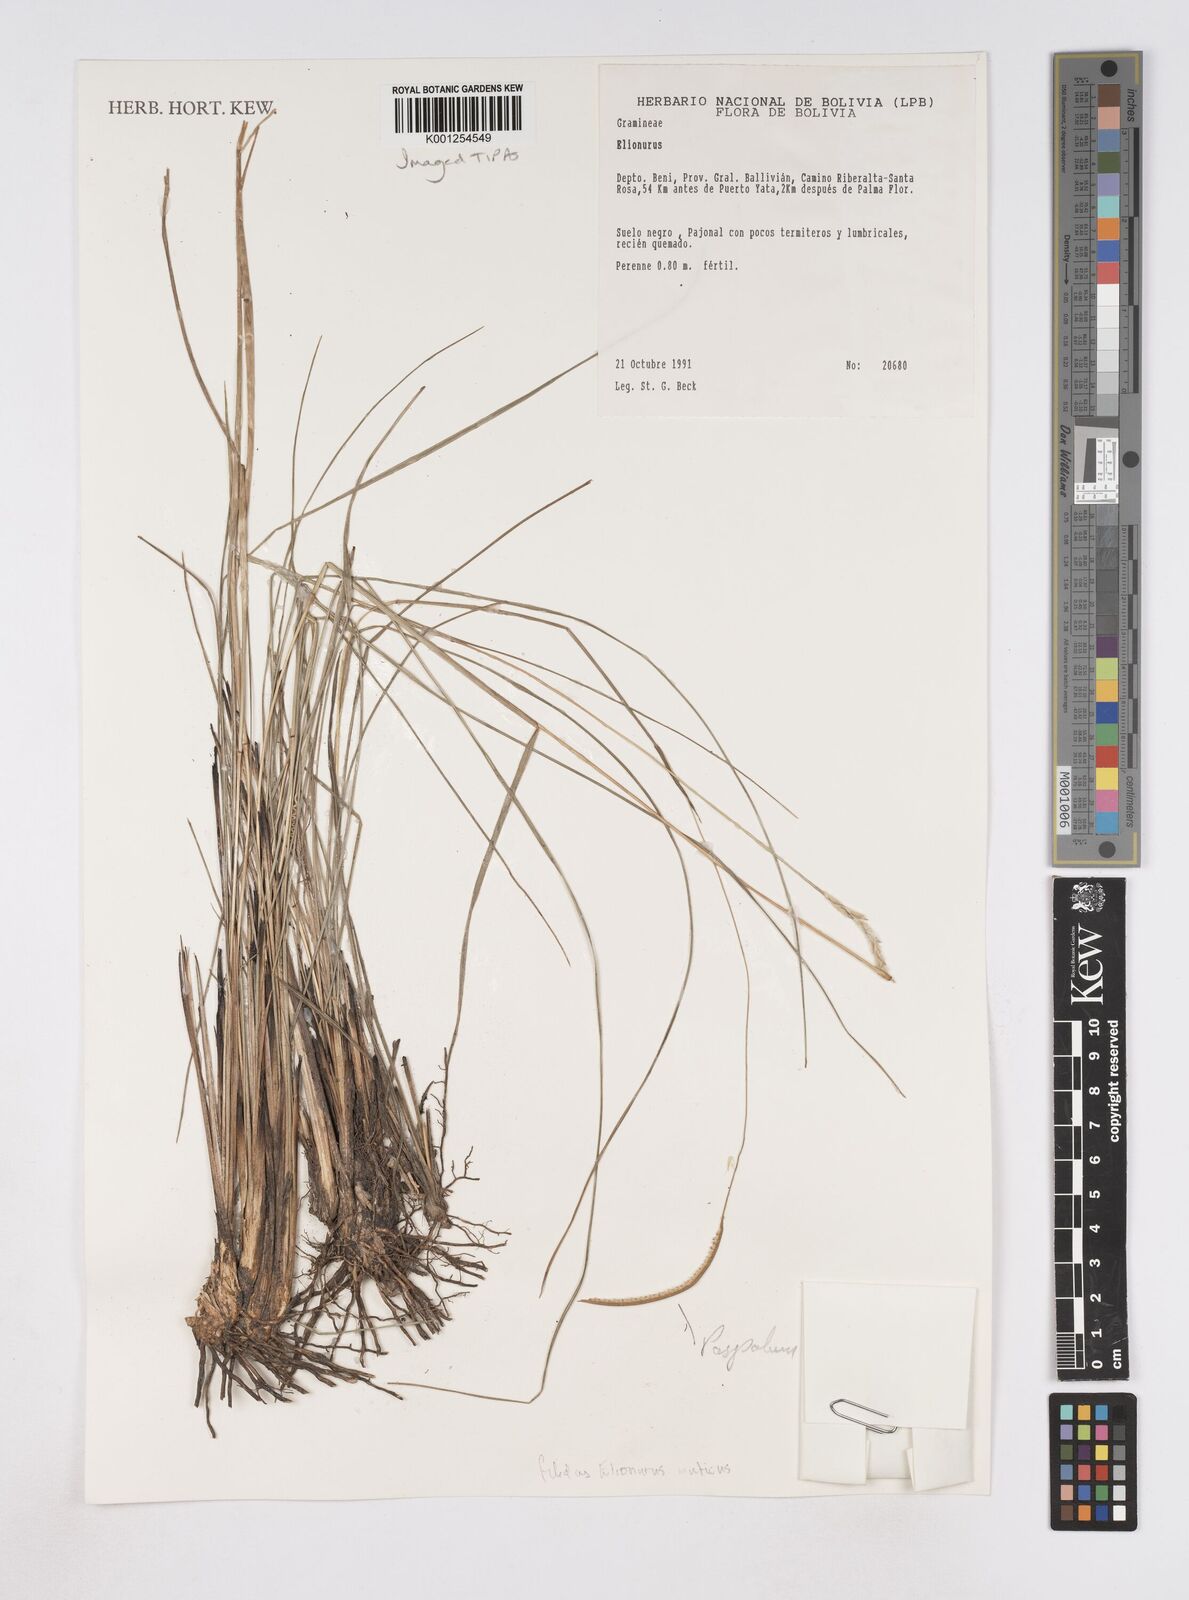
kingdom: Plantae
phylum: Tracheophyta
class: Liliopsida
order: Poales
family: Poaceae
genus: Elionurus
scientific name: Elionurus muticus
